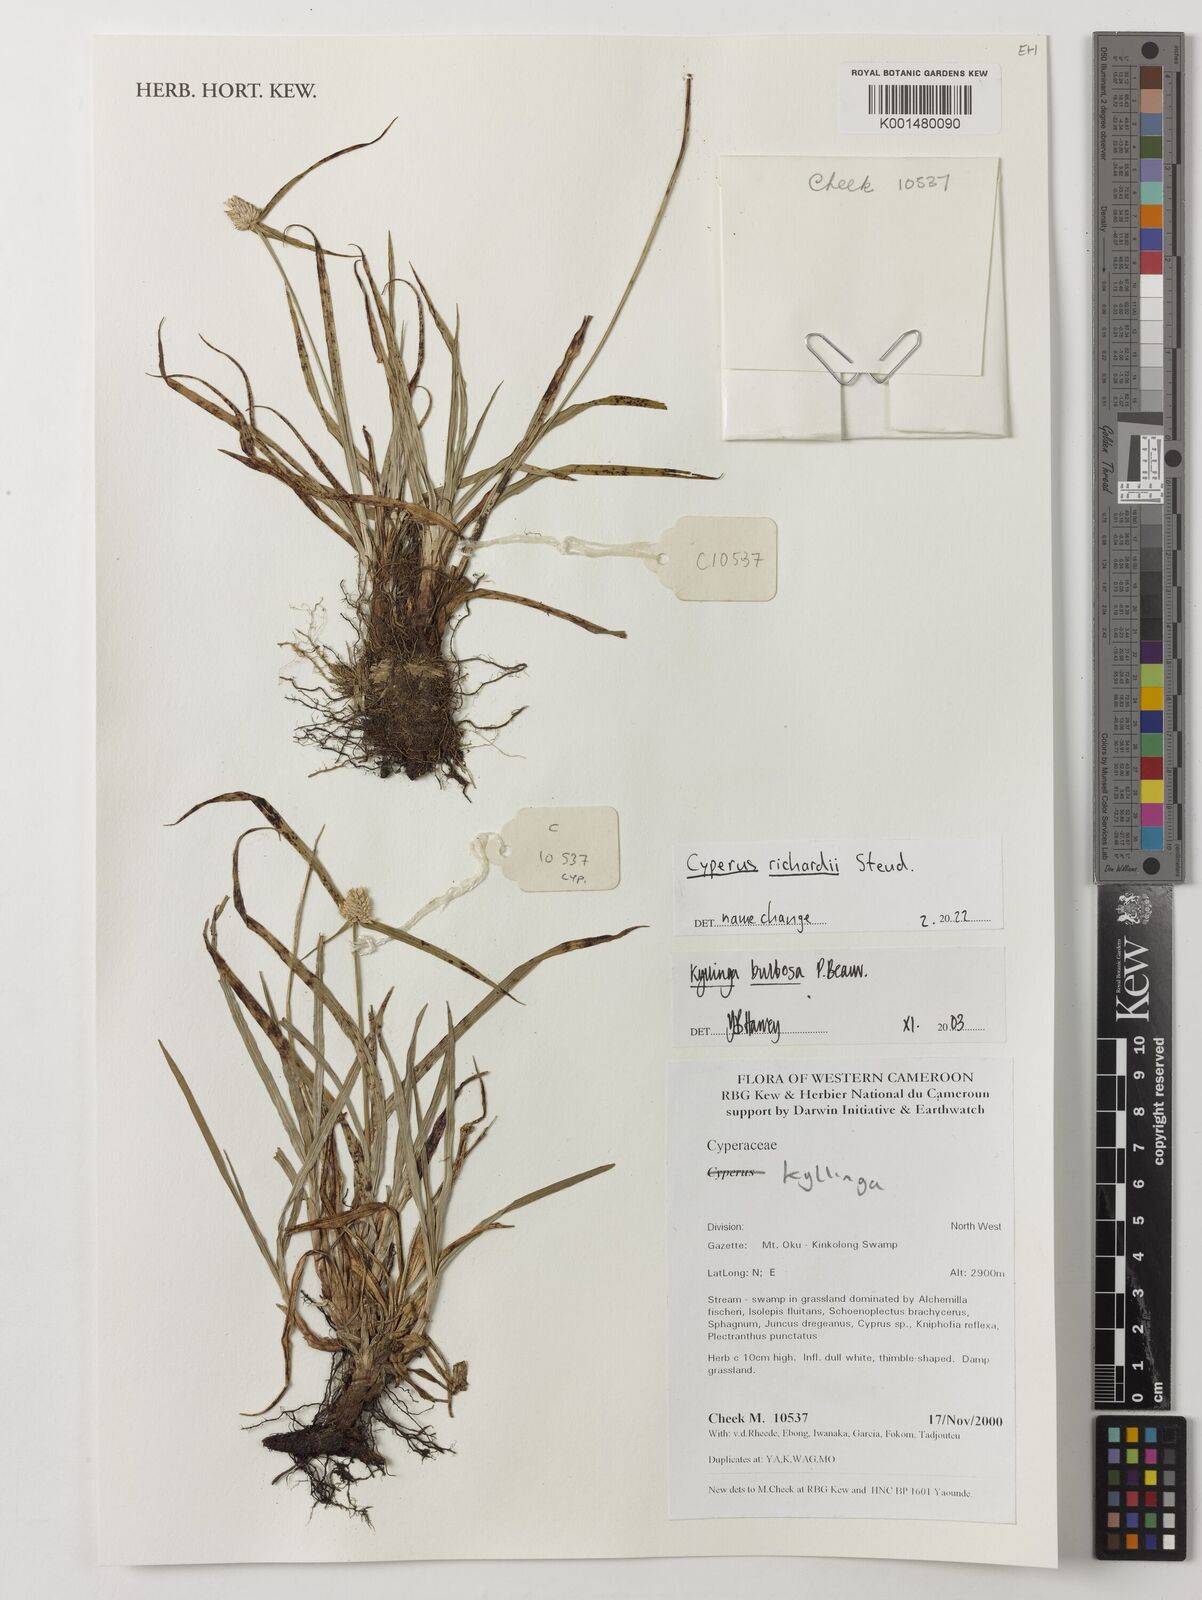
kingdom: Plantae
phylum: Tracheophyta
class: Liliopsida
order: Poales
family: Cyperaceae
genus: Cyperus
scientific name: Cyperus richardii
